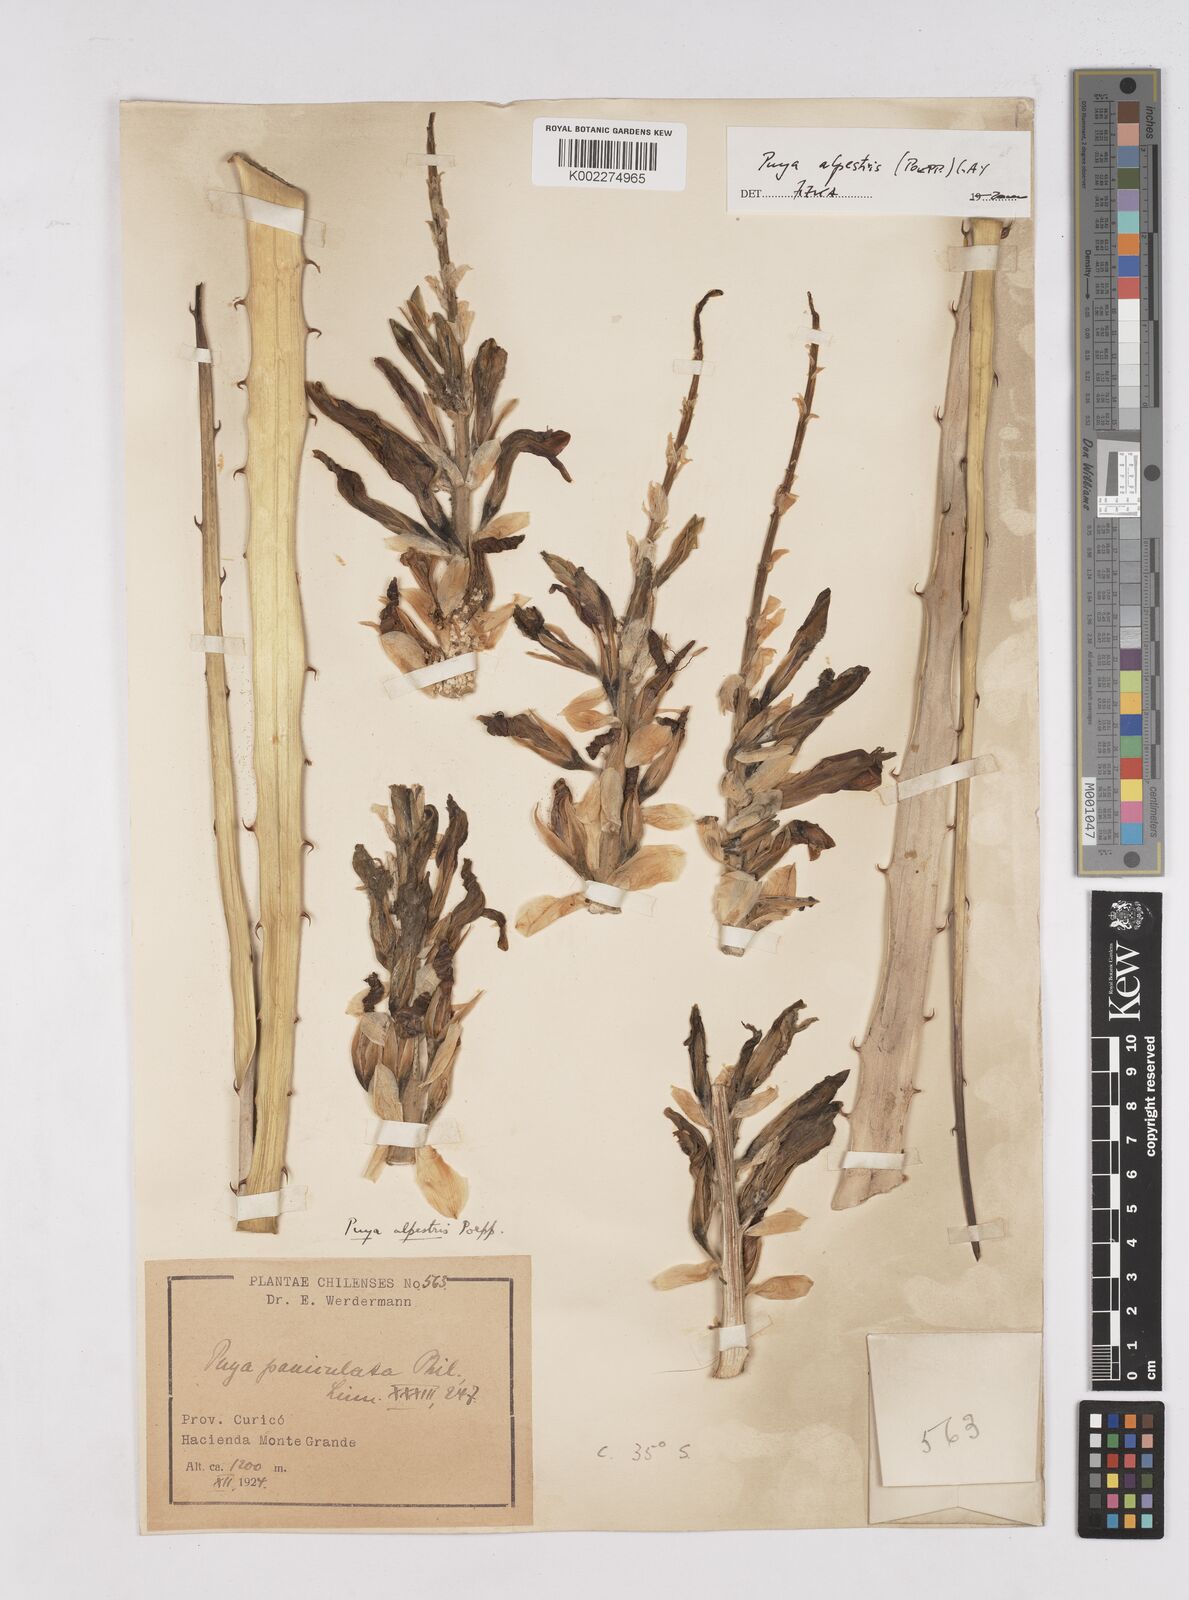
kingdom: Plantae
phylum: Tracheophyta
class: Liliopsida
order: Poales
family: Bromeliaceae
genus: Puya
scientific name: Puya alpestris
